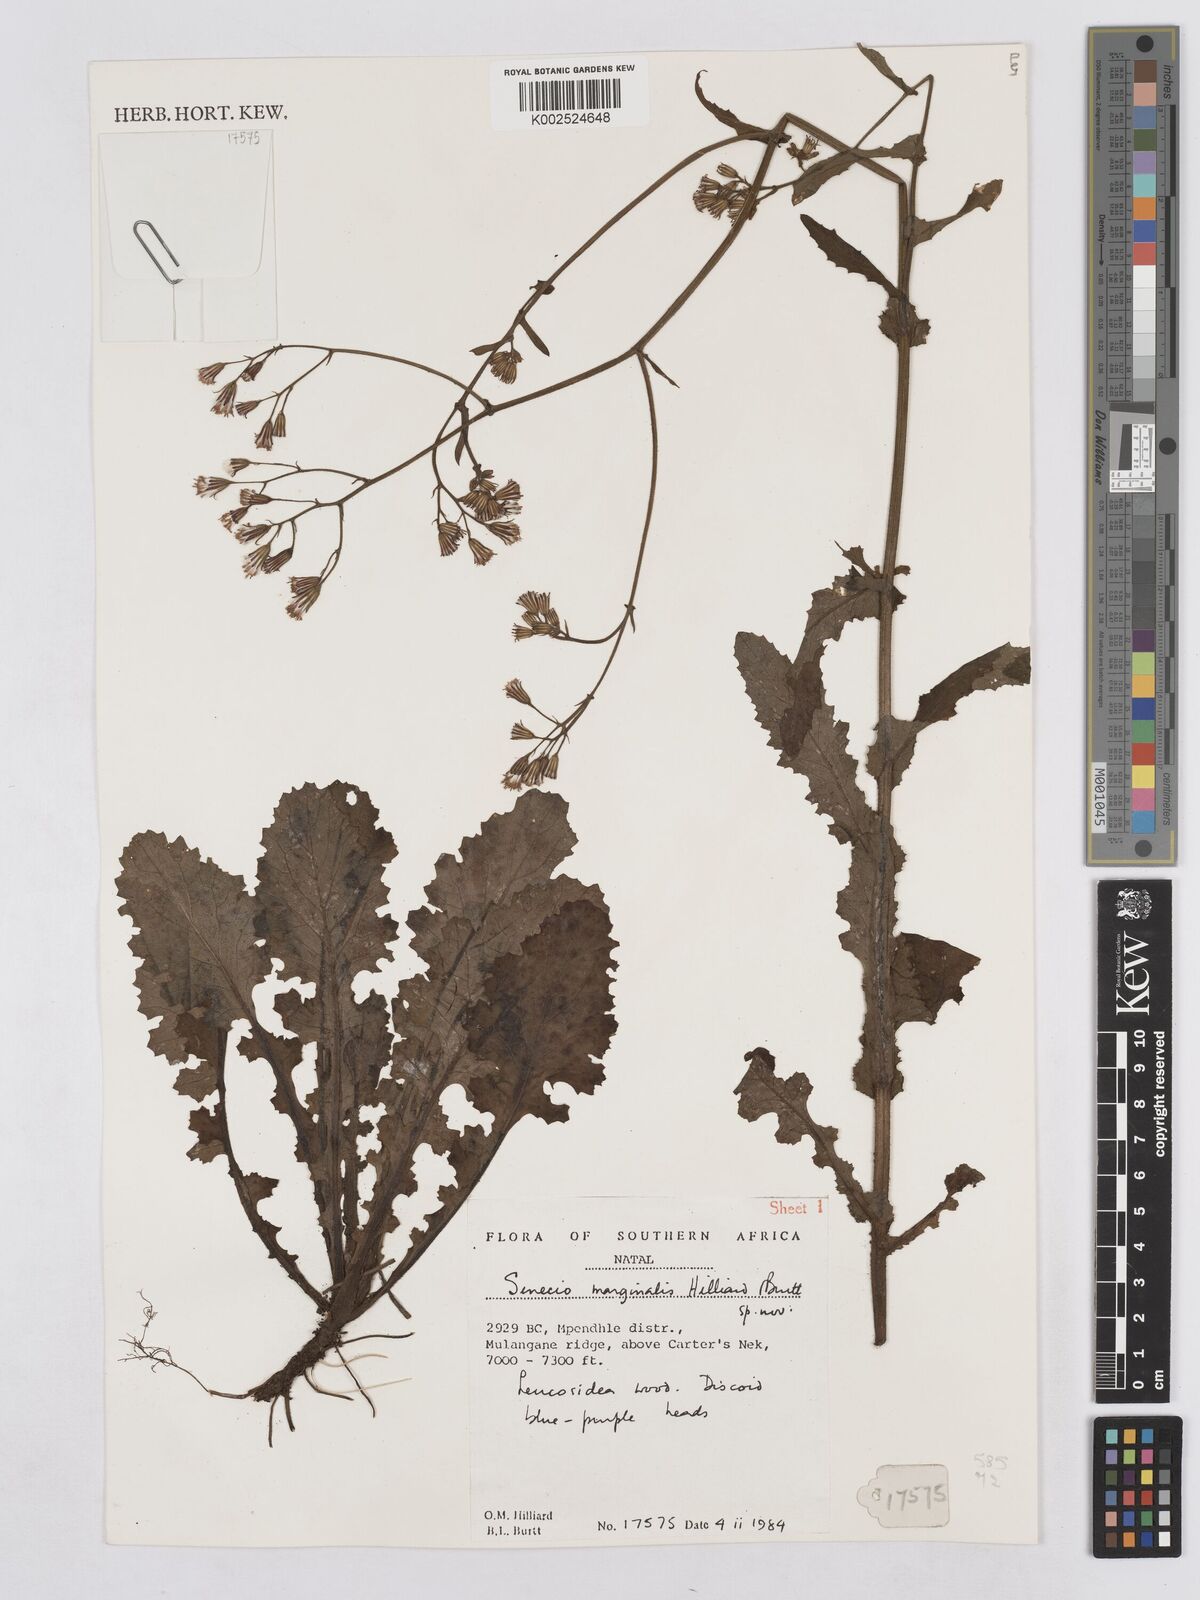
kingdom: Plantae
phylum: Tracheophyta
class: Magnoliopsida
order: Asterales
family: Asteraceae
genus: Senecio
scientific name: Senecio marginalis
